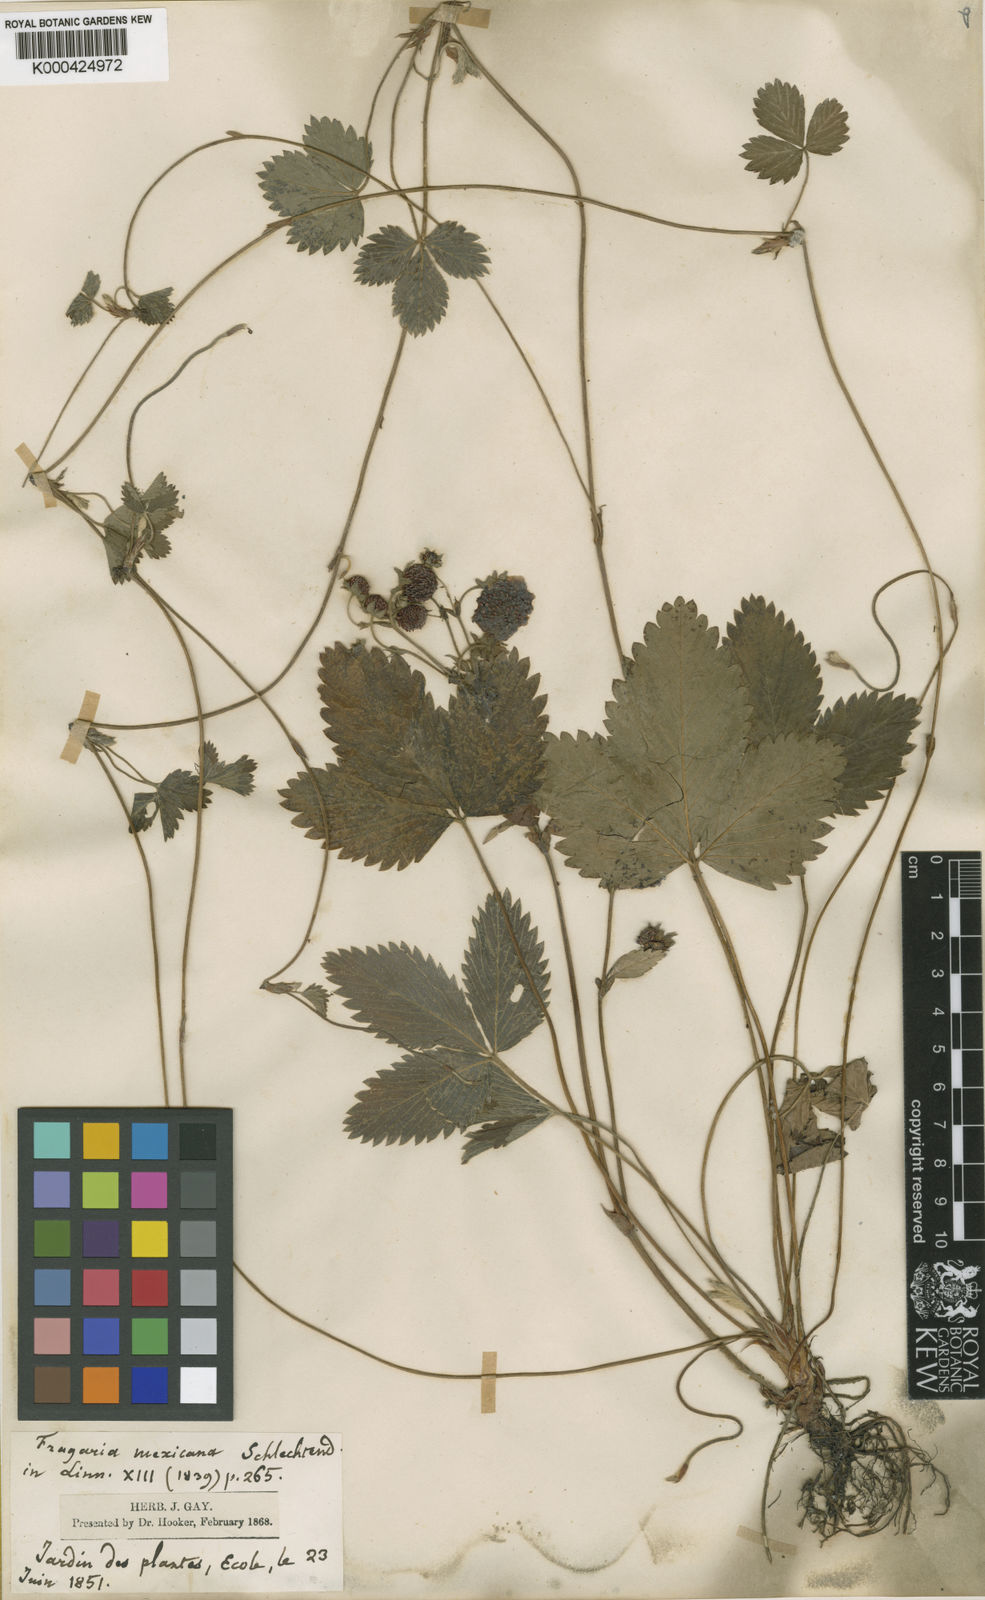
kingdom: Plantae
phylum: Tracheophyta
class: Magnoliopsida
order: Rosales
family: Rosaceae
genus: Fragaria
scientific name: Fragaria vesca
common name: Wild strawberry
